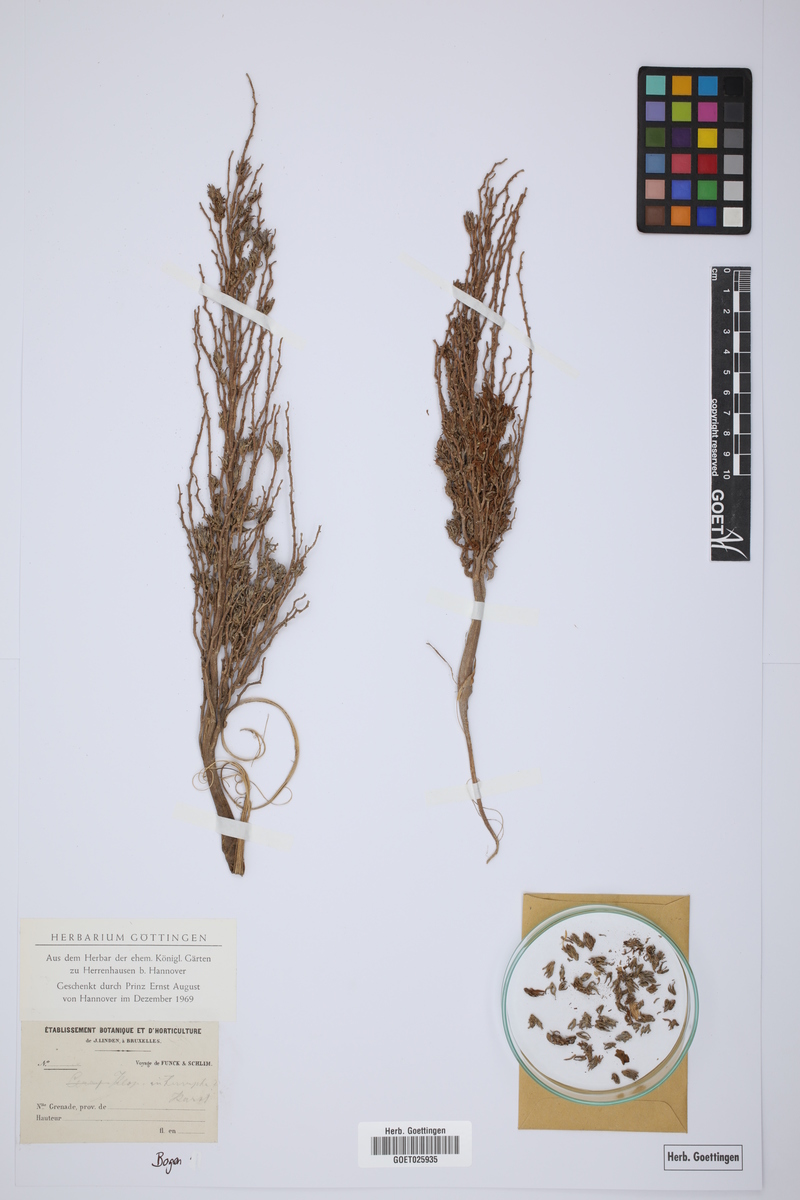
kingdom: Plantae
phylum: Tracheophyta
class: Liliopsida
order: Arecales
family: Arecaceae
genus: Ceroxylon
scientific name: Ceroxylon ceriferum
